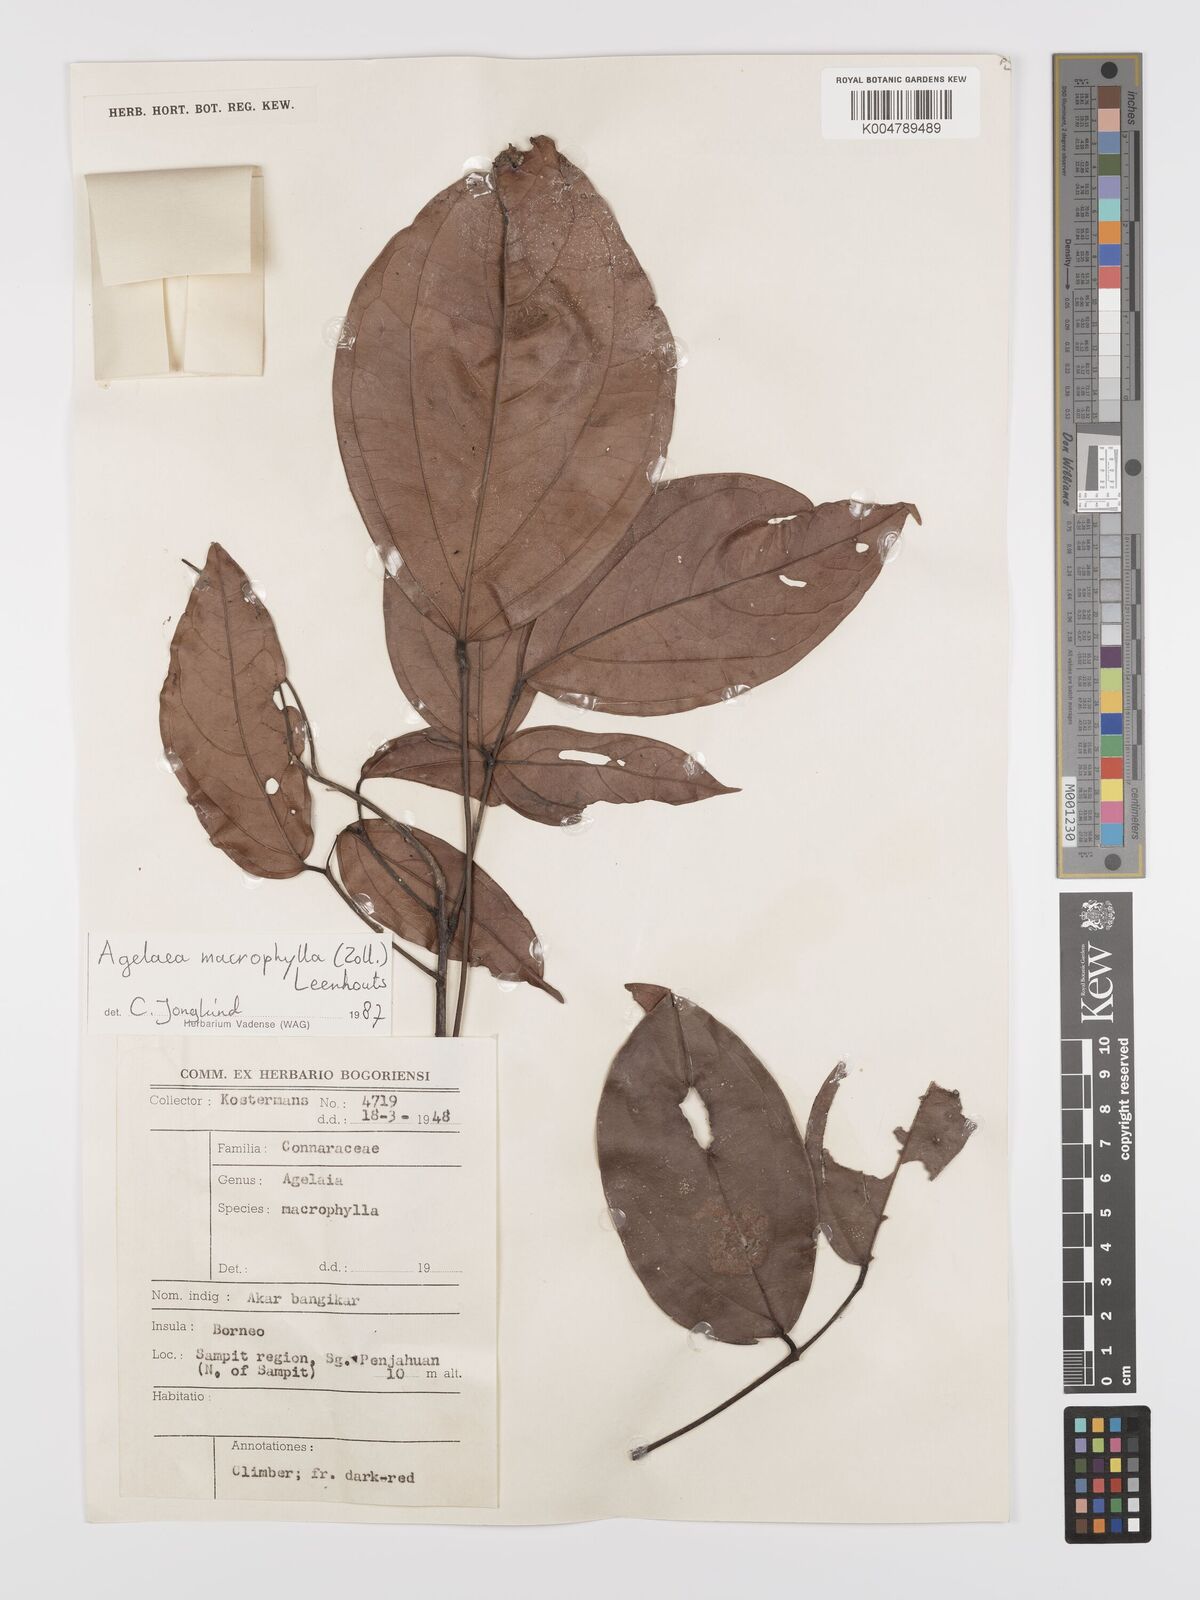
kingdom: Plantae
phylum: Tracheophyta
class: Magnoliopsida
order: Oxalidales
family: Connaraceae
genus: Agelaea
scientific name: Agelaea macrophylla
